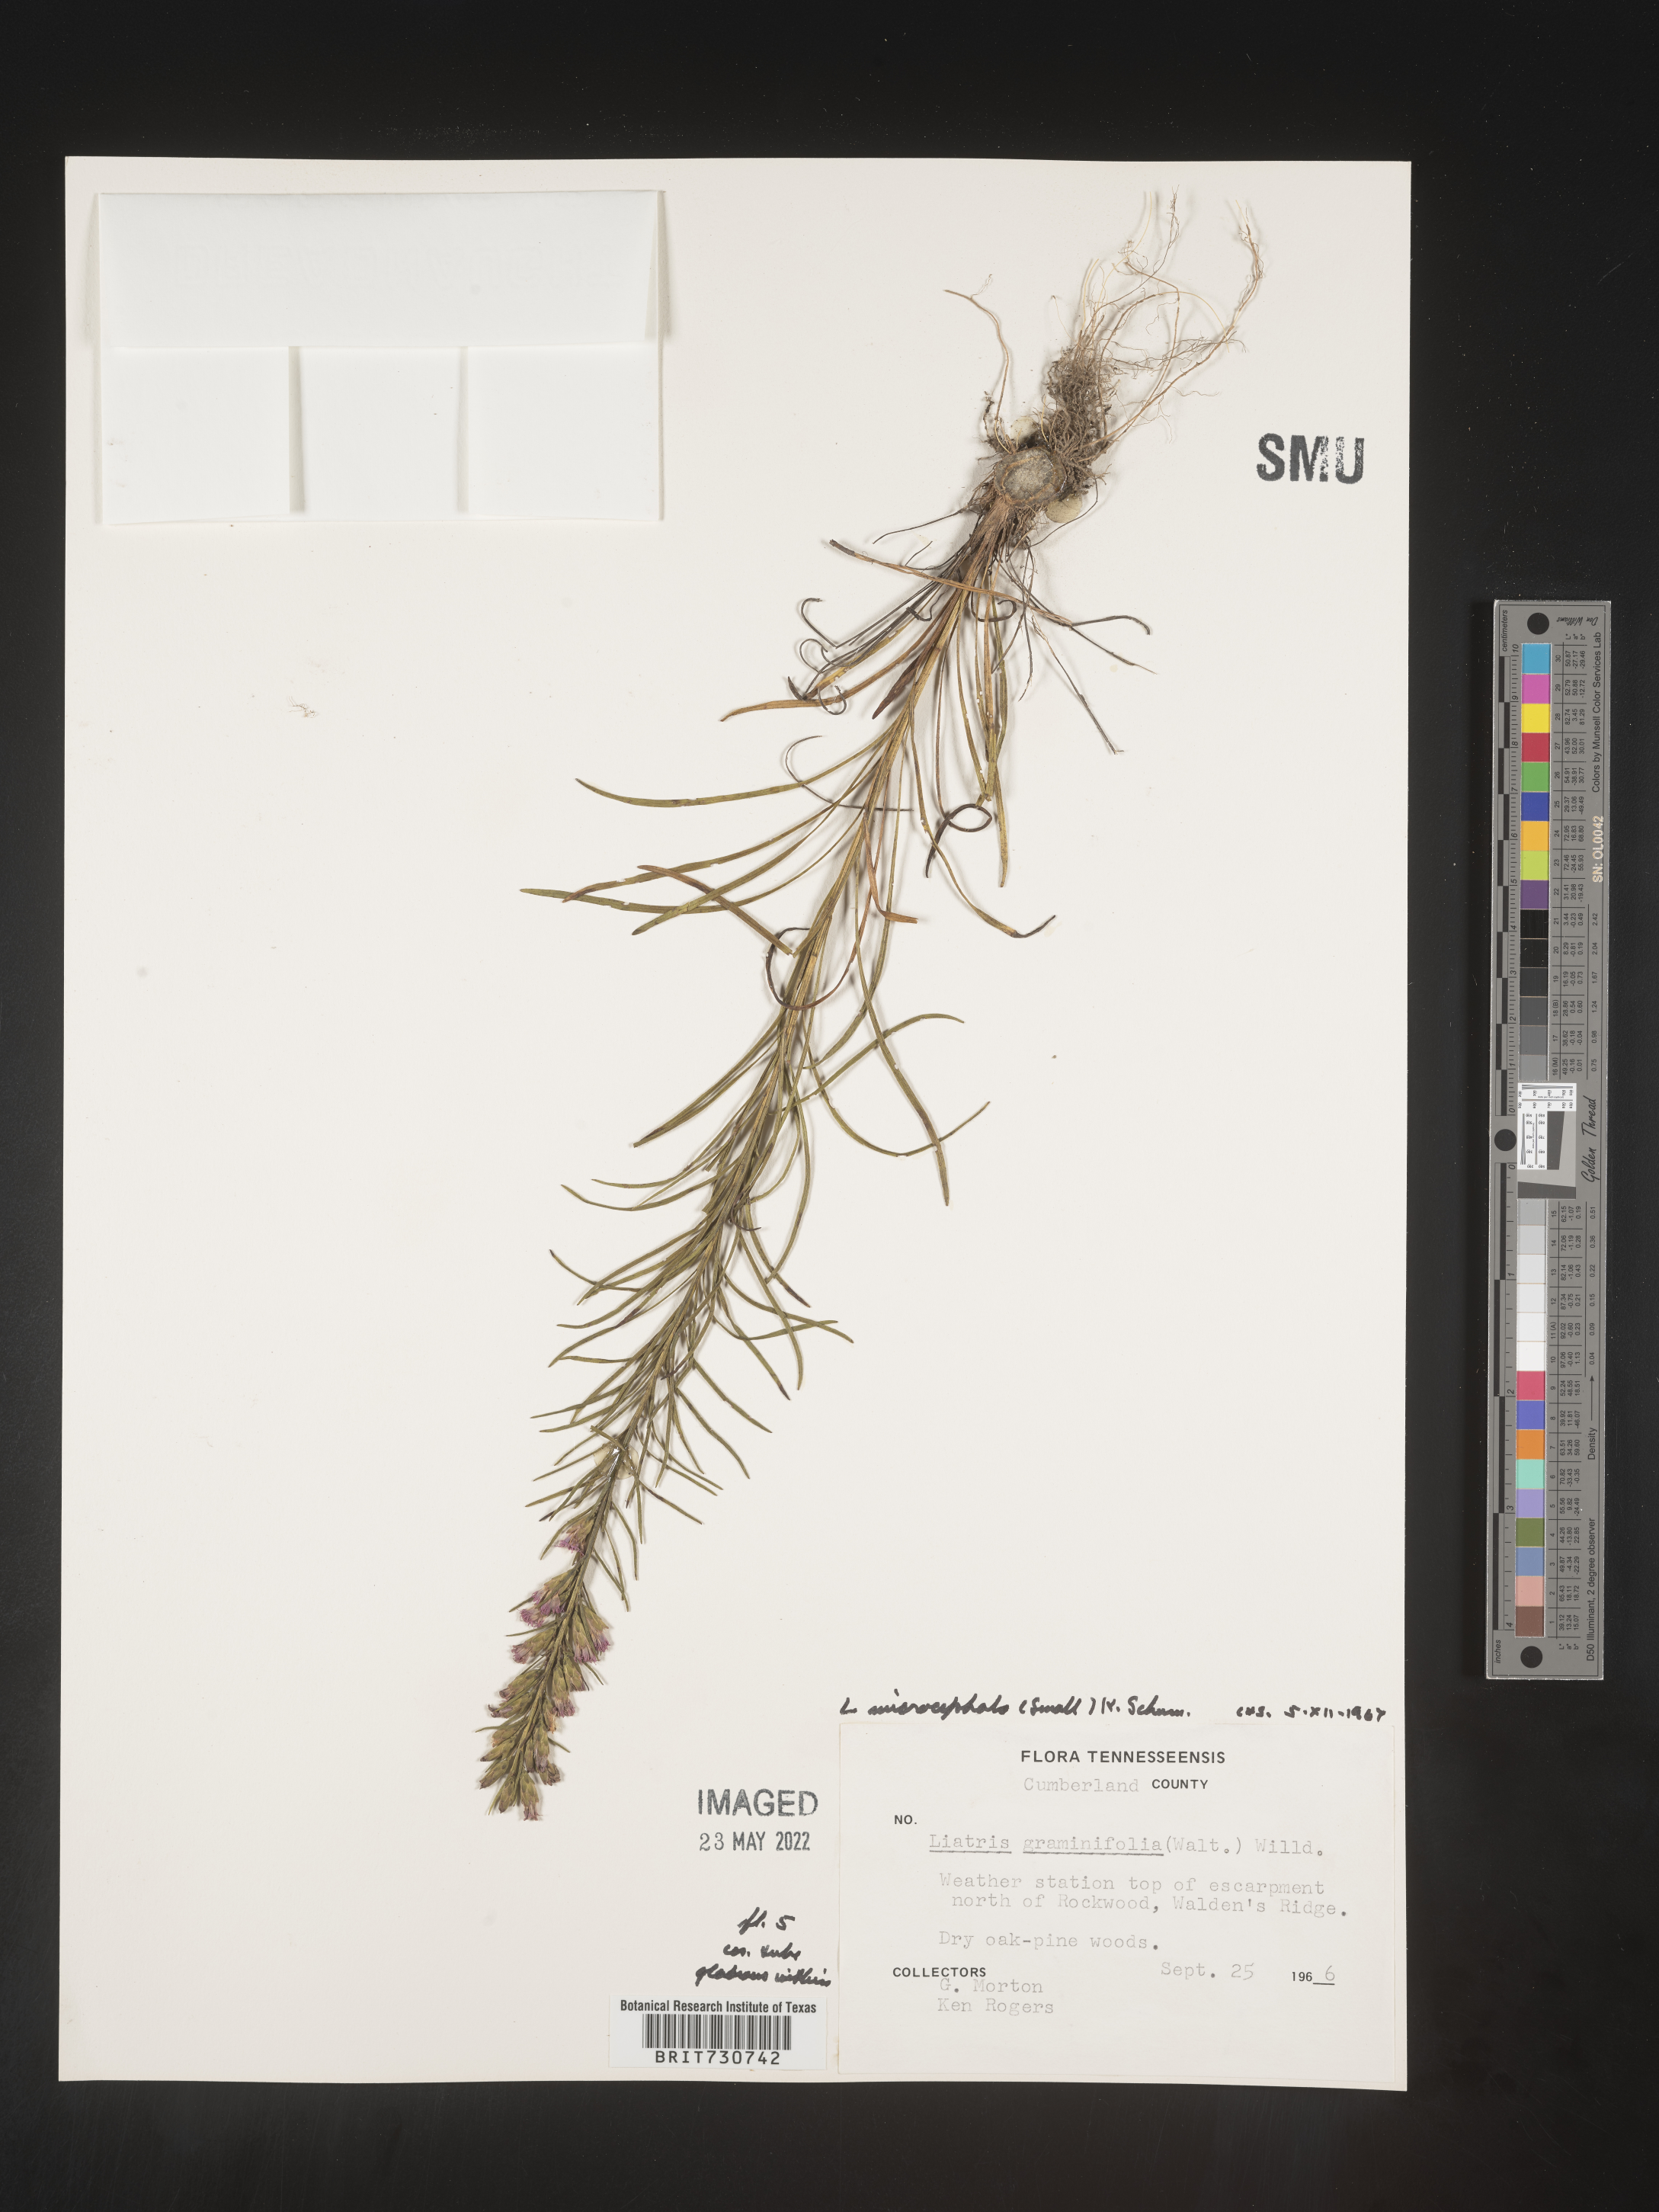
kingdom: Plantae
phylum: Tracheophyta
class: Magnoliopsida
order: Asterales
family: Asteraceae
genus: Liatris
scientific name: Liatris microcephala
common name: Small-head gayfeather
